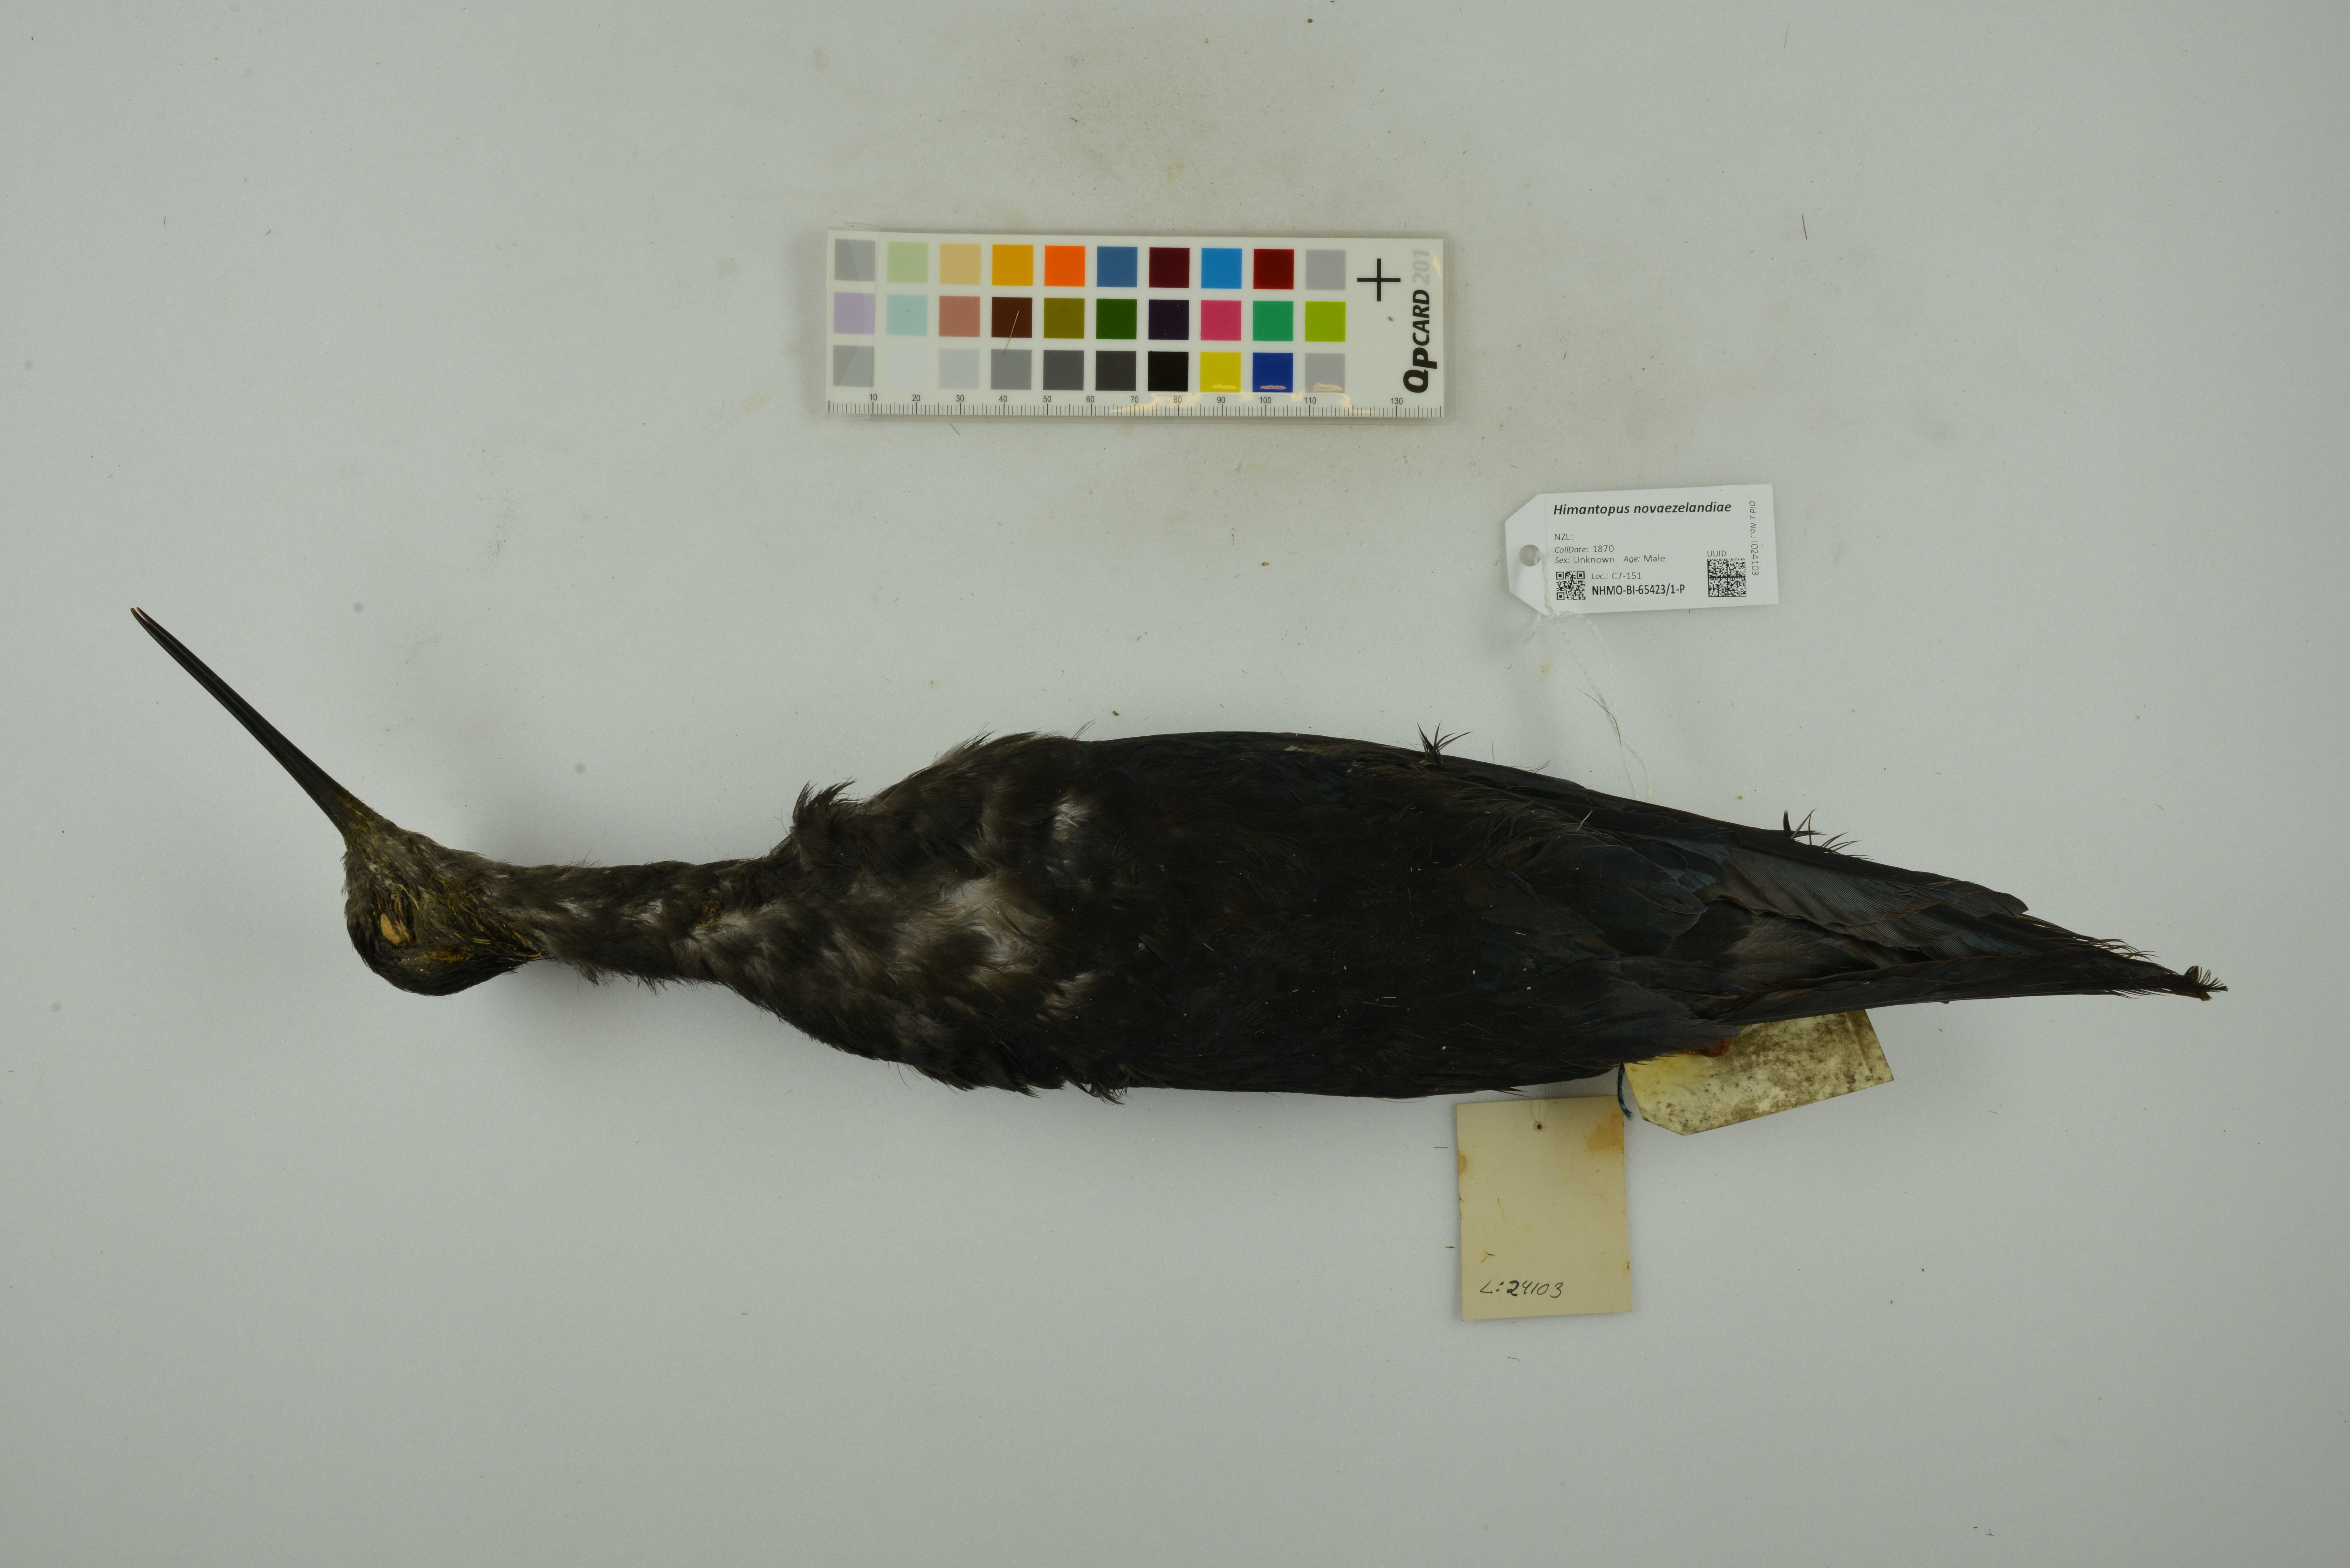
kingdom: Animalia
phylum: Chordata
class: Aves
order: Charadriiformes
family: Recurvirostridae
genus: Himantopus
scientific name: Himantopus novaezelandiae
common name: Black stilt
